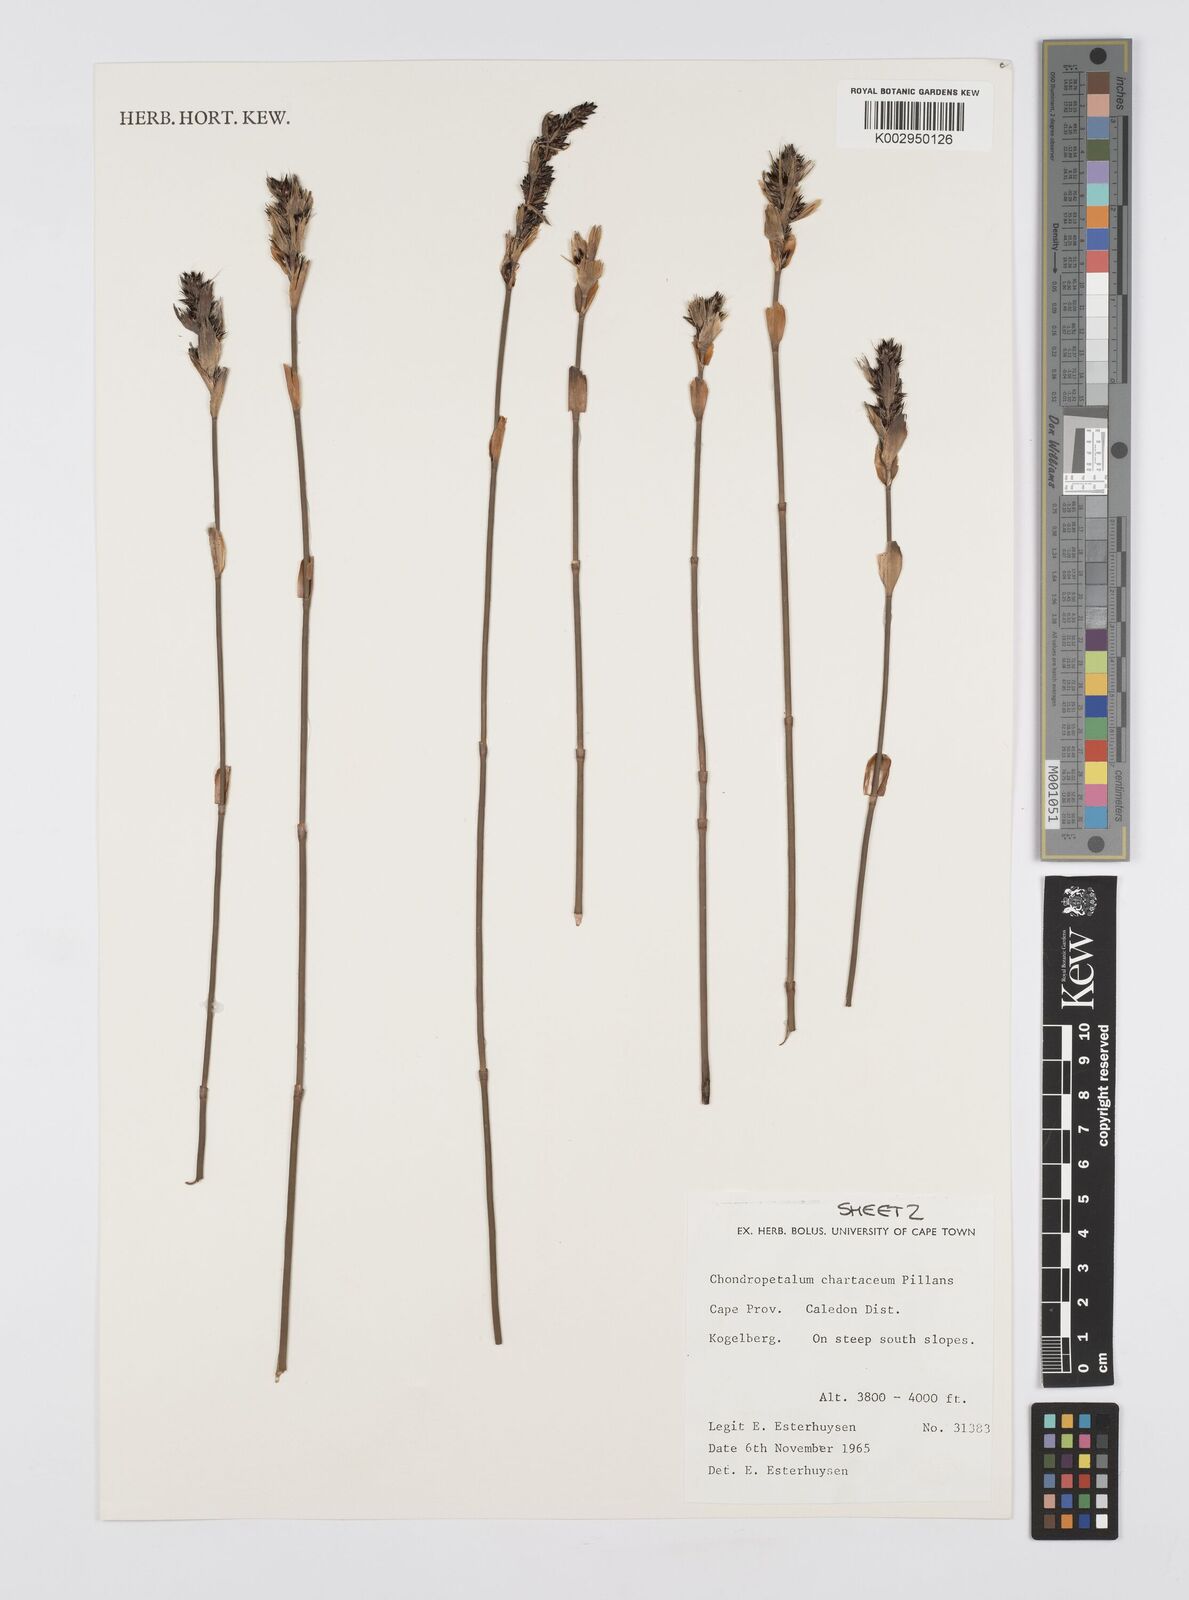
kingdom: Plantae
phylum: Tracheophyta
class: Liliopsida
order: Poales
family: Restionaceae
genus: Askidiosperma
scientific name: Askidiosperma chartaceum
